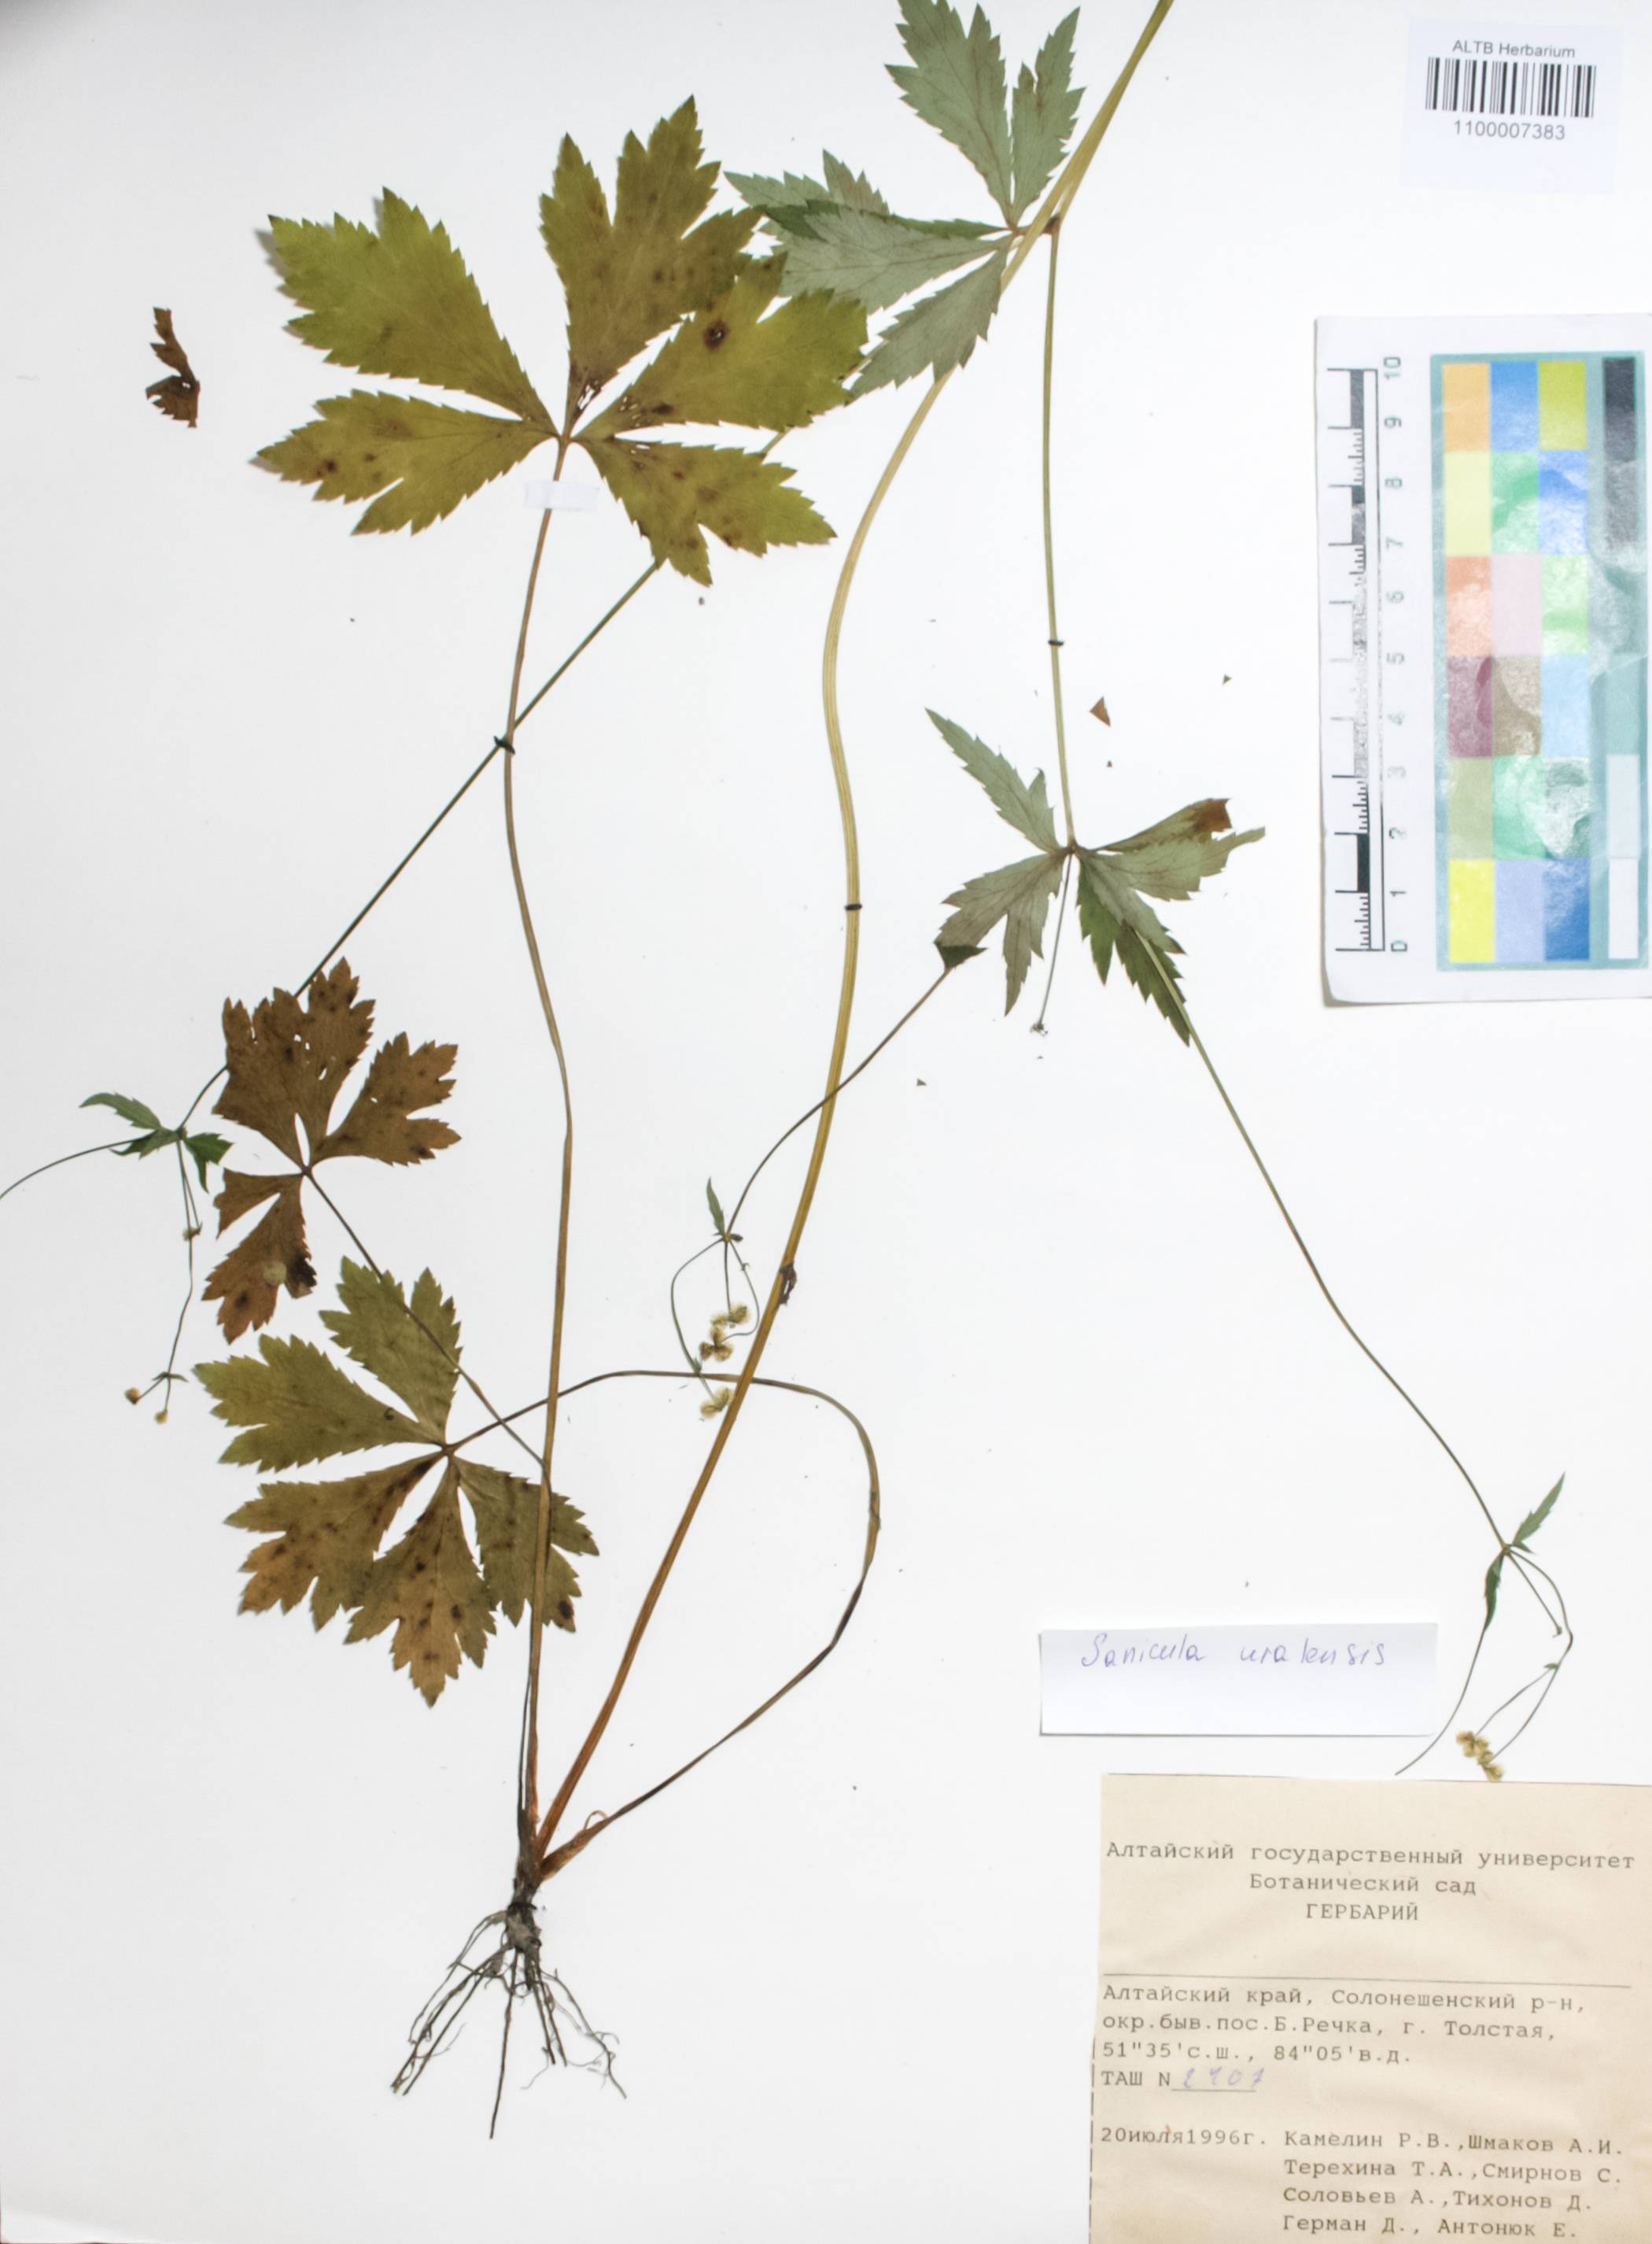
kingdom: Plantae
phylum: Tracheophyta
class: Magnoliopsida
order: Apiales
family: Apiaceae
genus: Sanicula
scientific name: Sanicula giraldii
